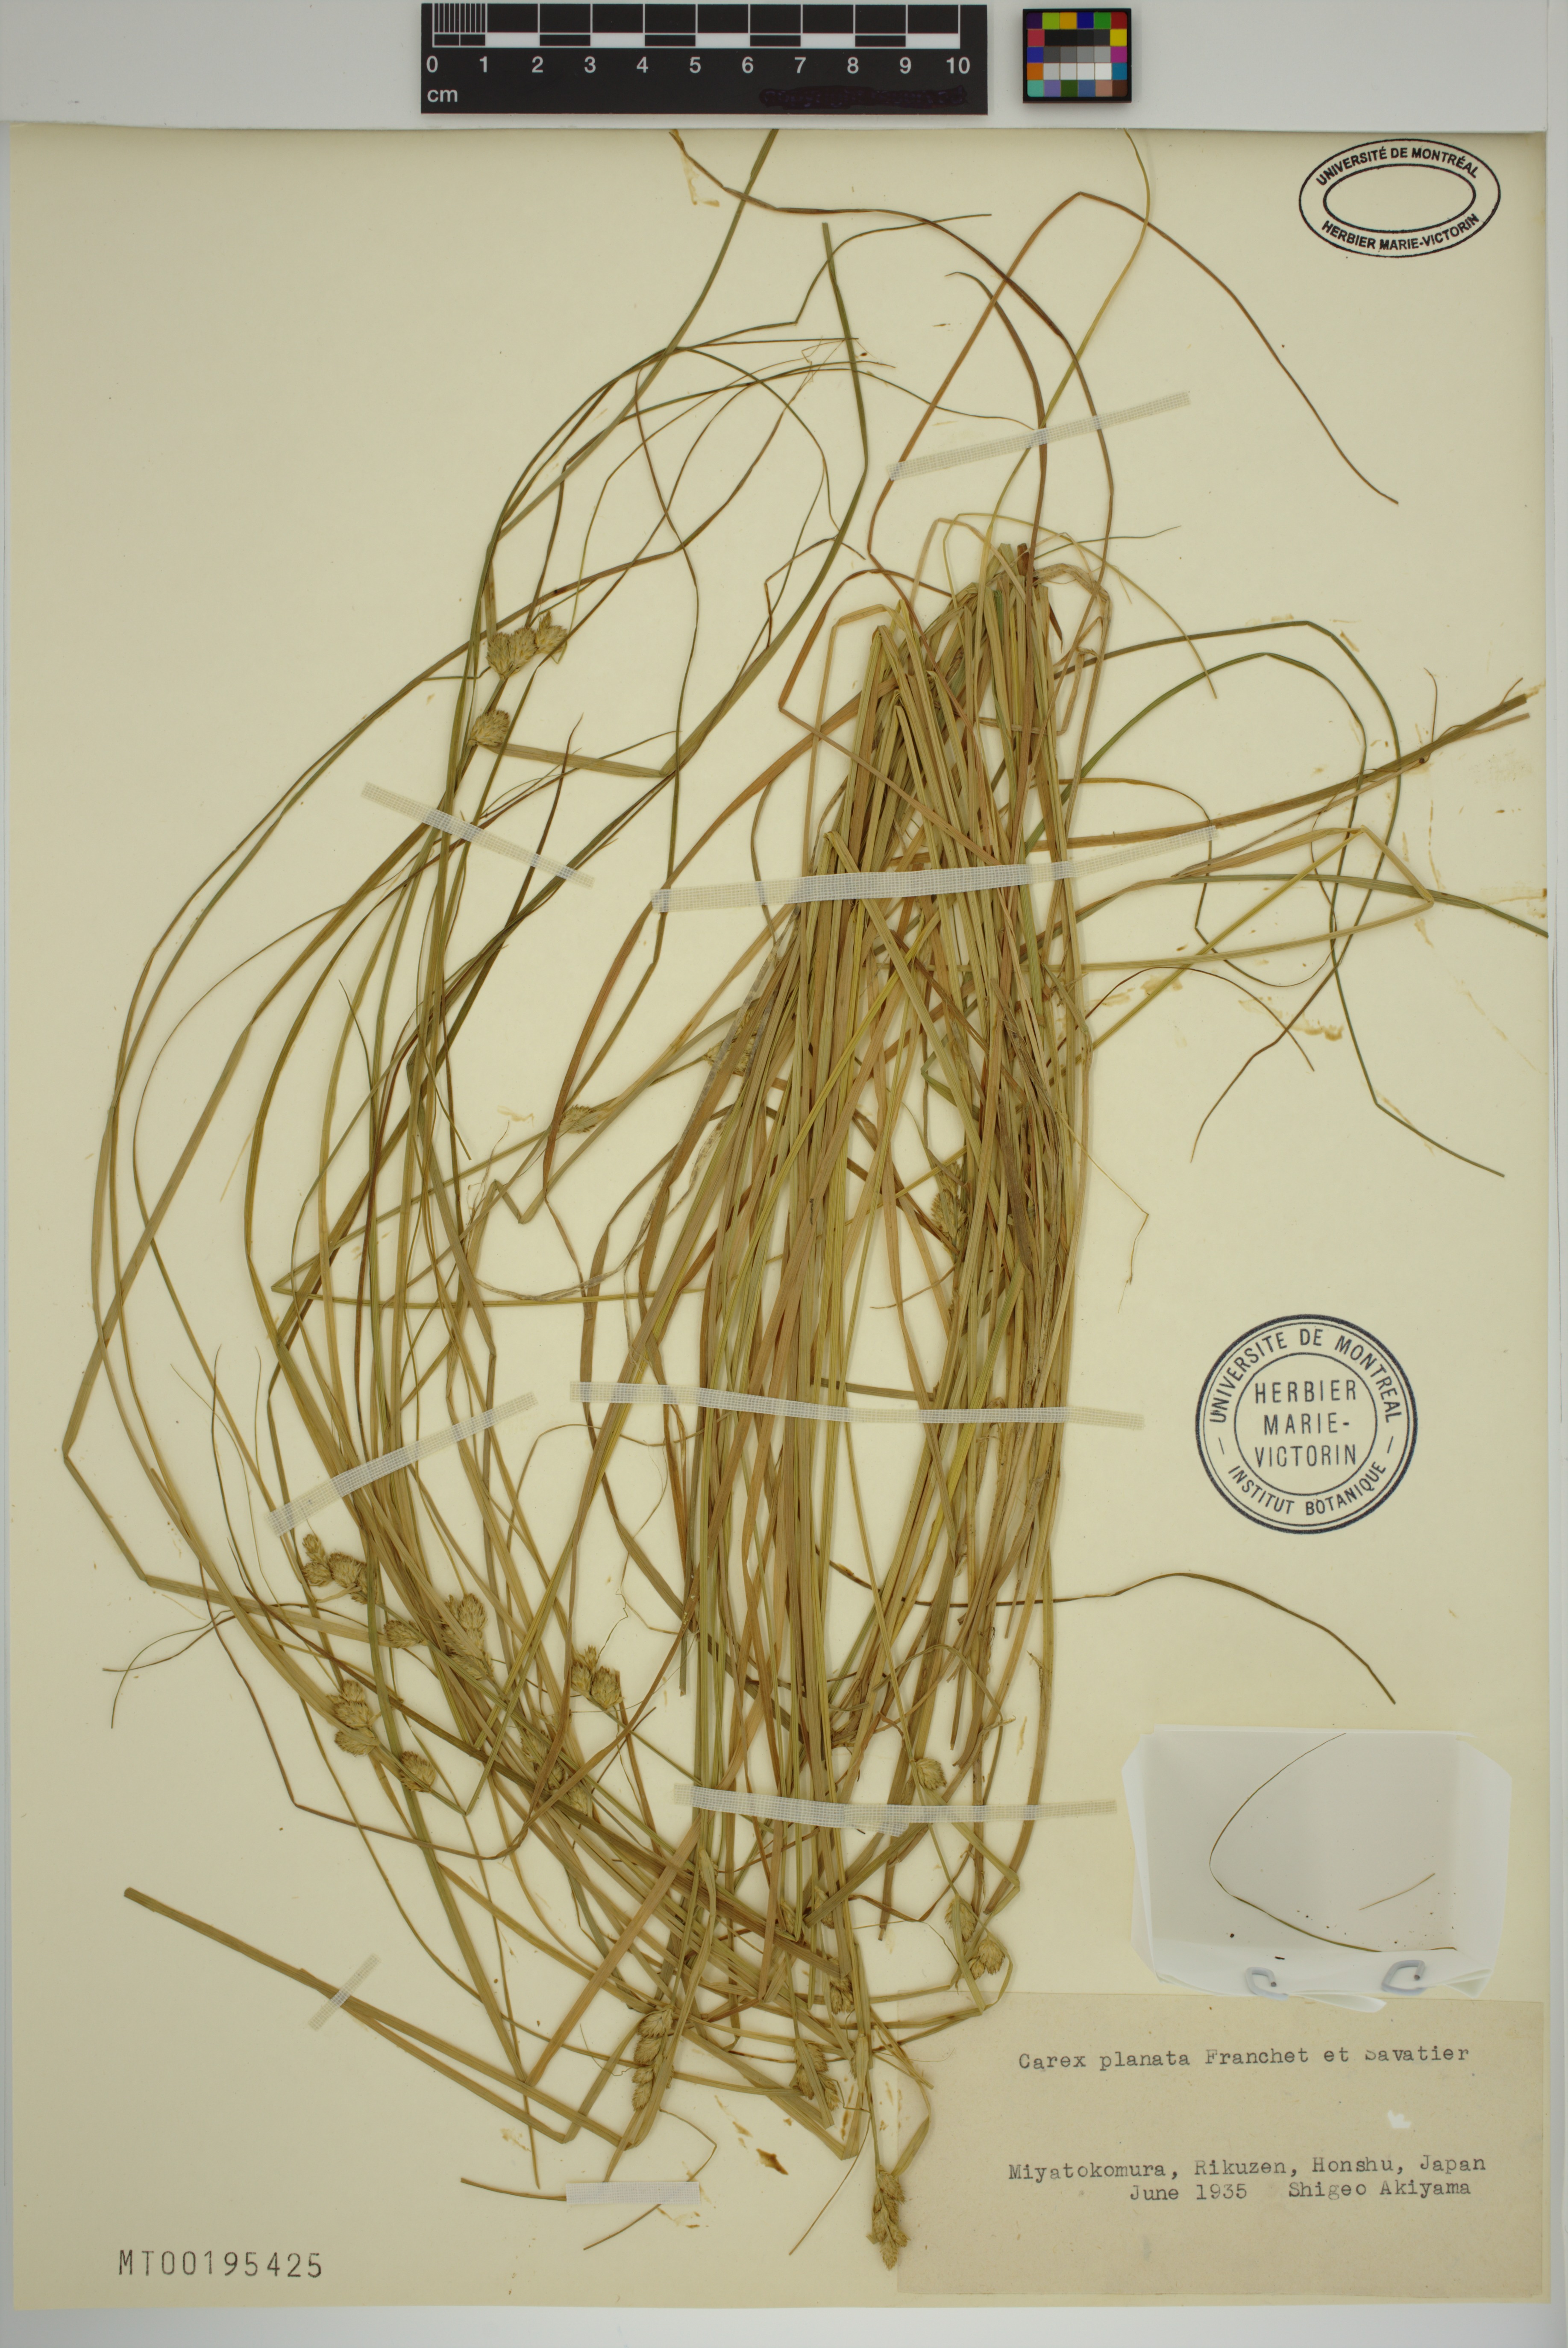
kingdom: Plantae
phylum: Tracheophyta
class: Liliopsida
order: Poales
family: Cyperaceae
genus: Carex
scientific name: Carex planata
